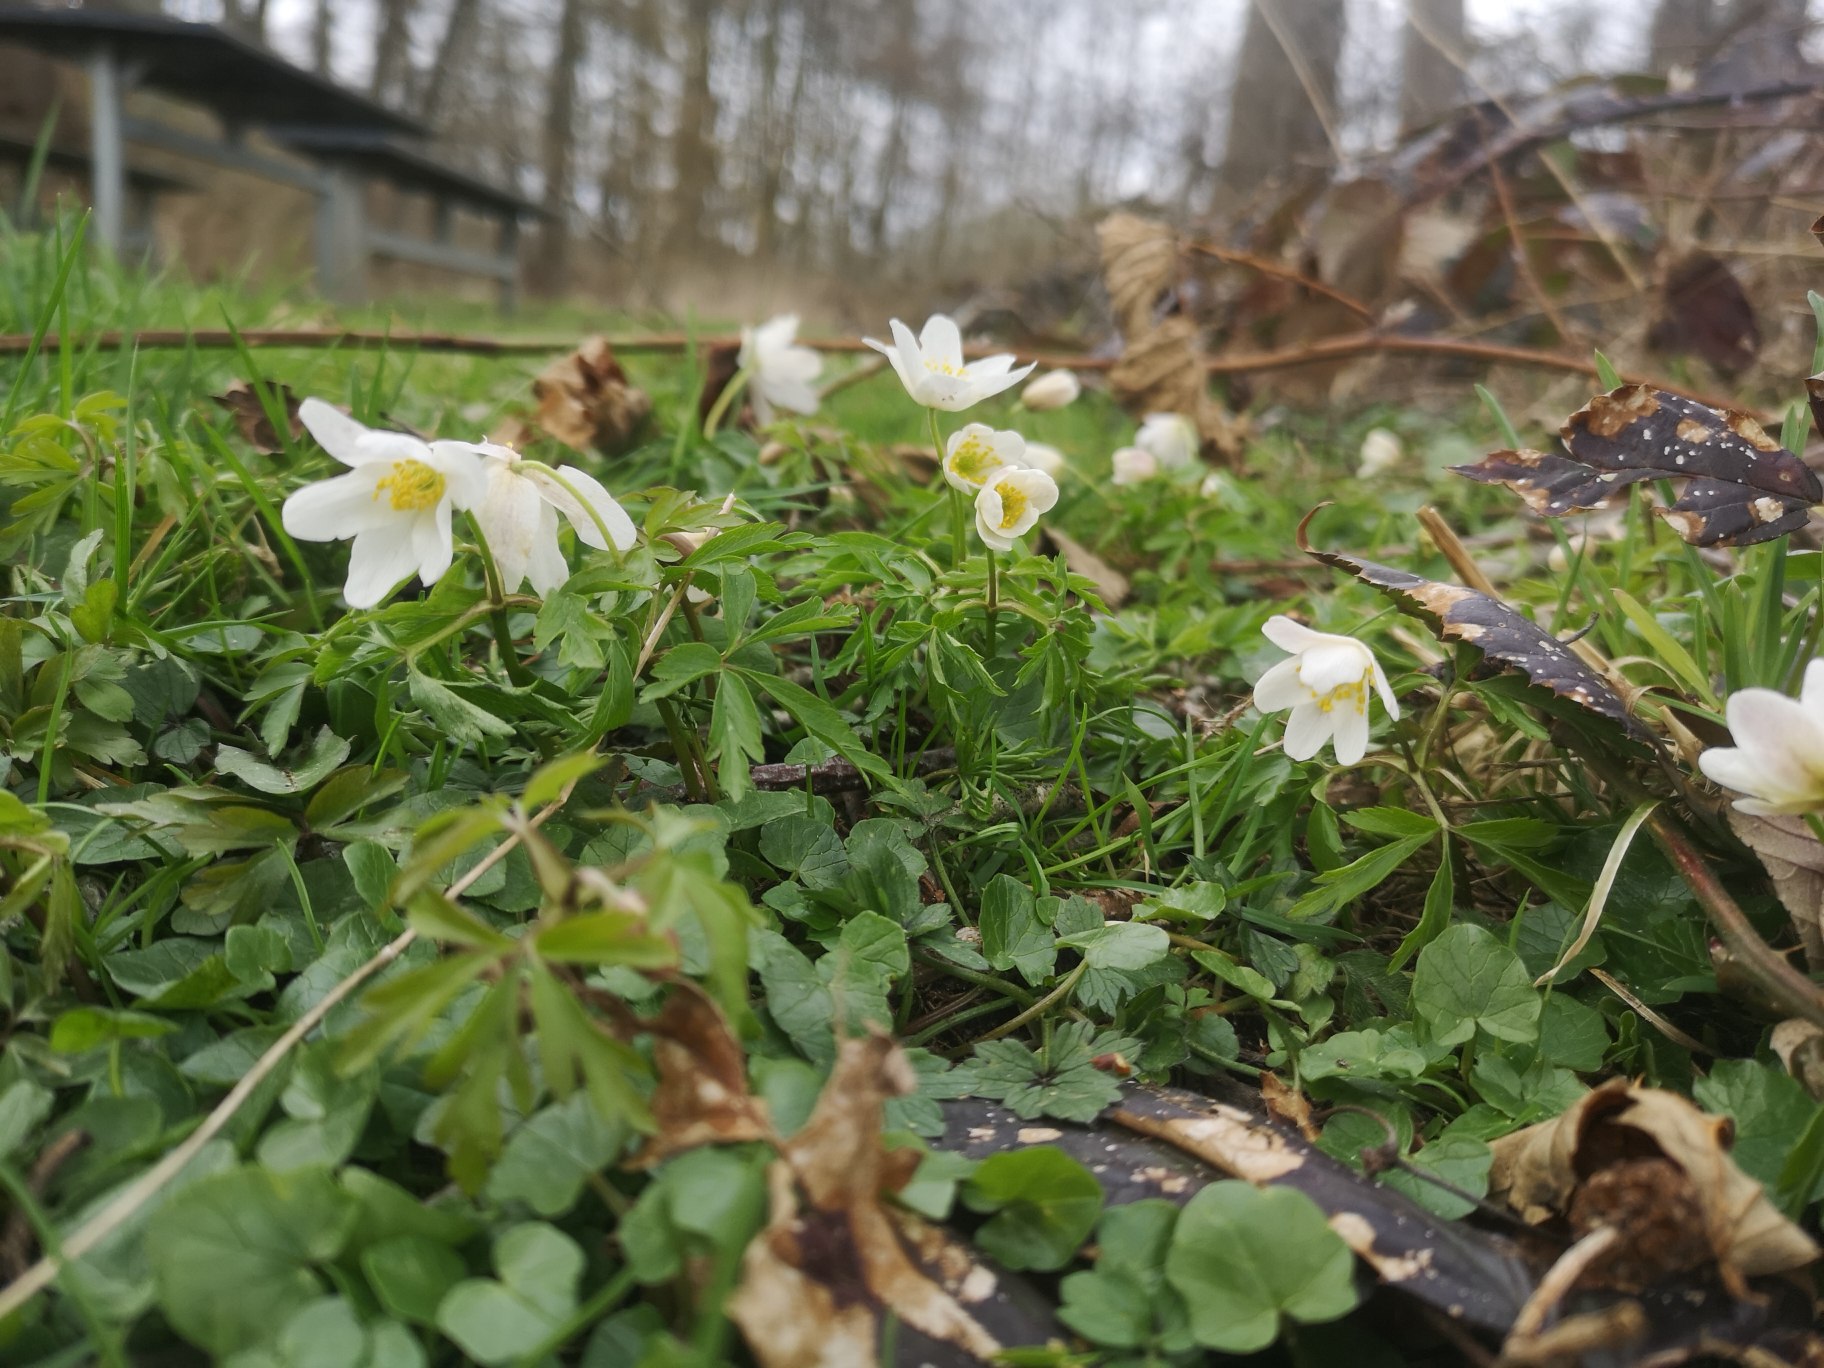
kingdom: Plantae
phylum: Tracheophyta
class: Magnoliopsida
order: Ranunculales
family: Ranunculaceae
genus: Anemone
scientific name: Anemone nemorosa
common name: Hvid anemone
